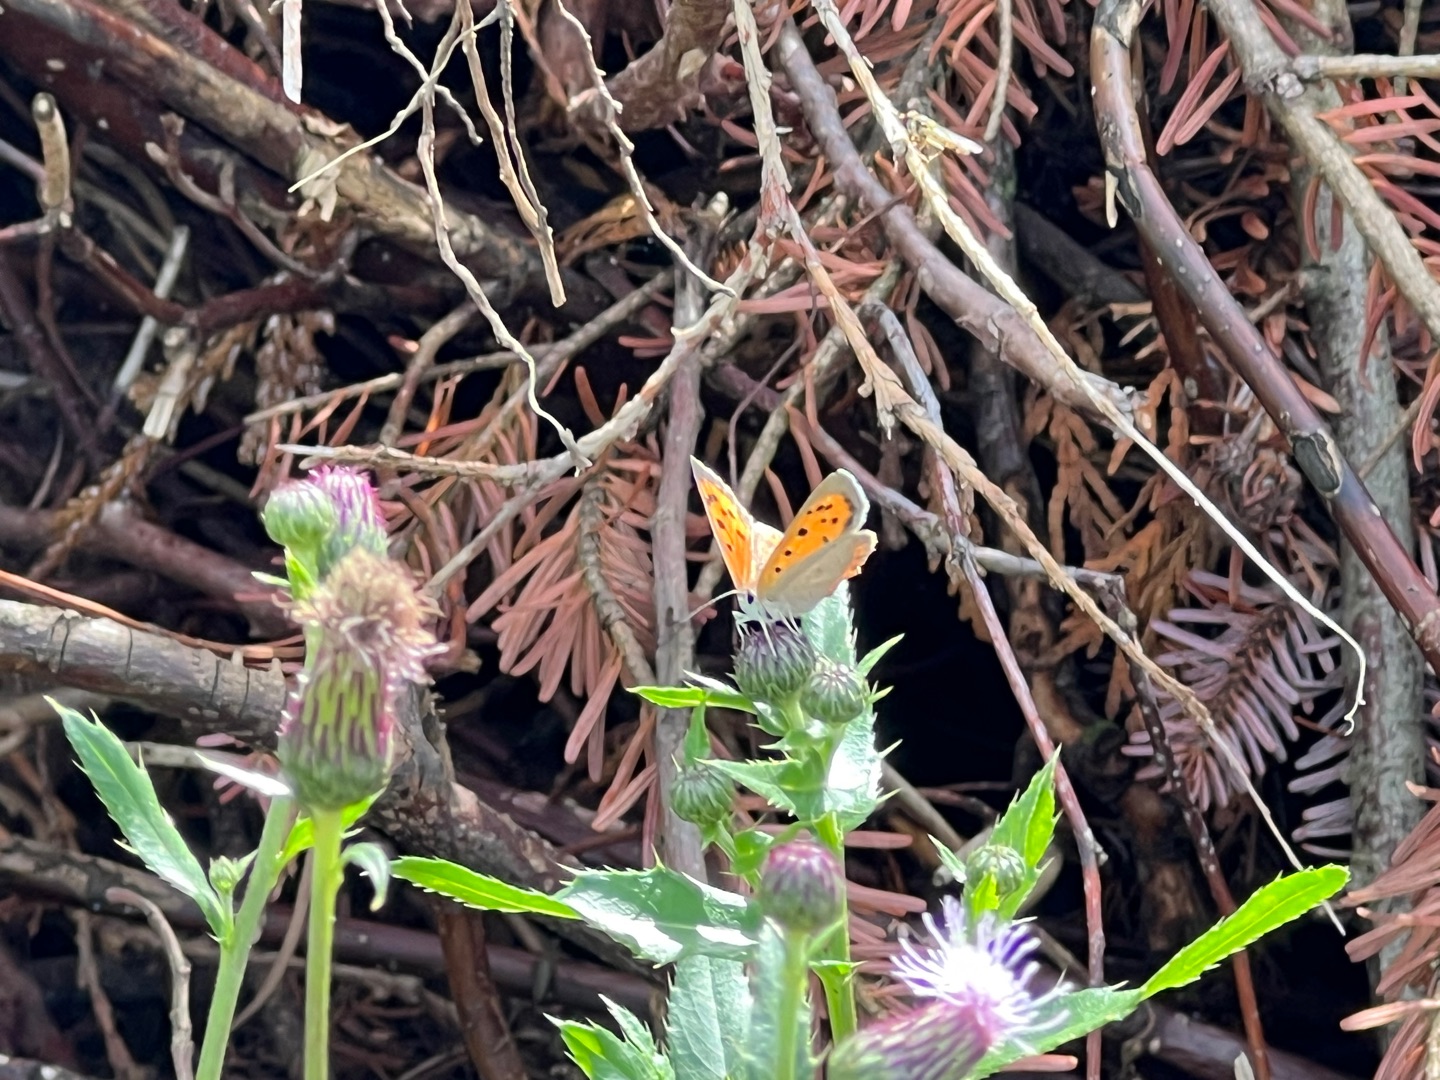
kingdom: Animalia
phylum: Arthropoda
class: Insecta
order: Lepidoptera
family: Lycaenidae
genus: Lycaena
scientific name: Lycaena phlaeas
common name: Lille ildfugl
